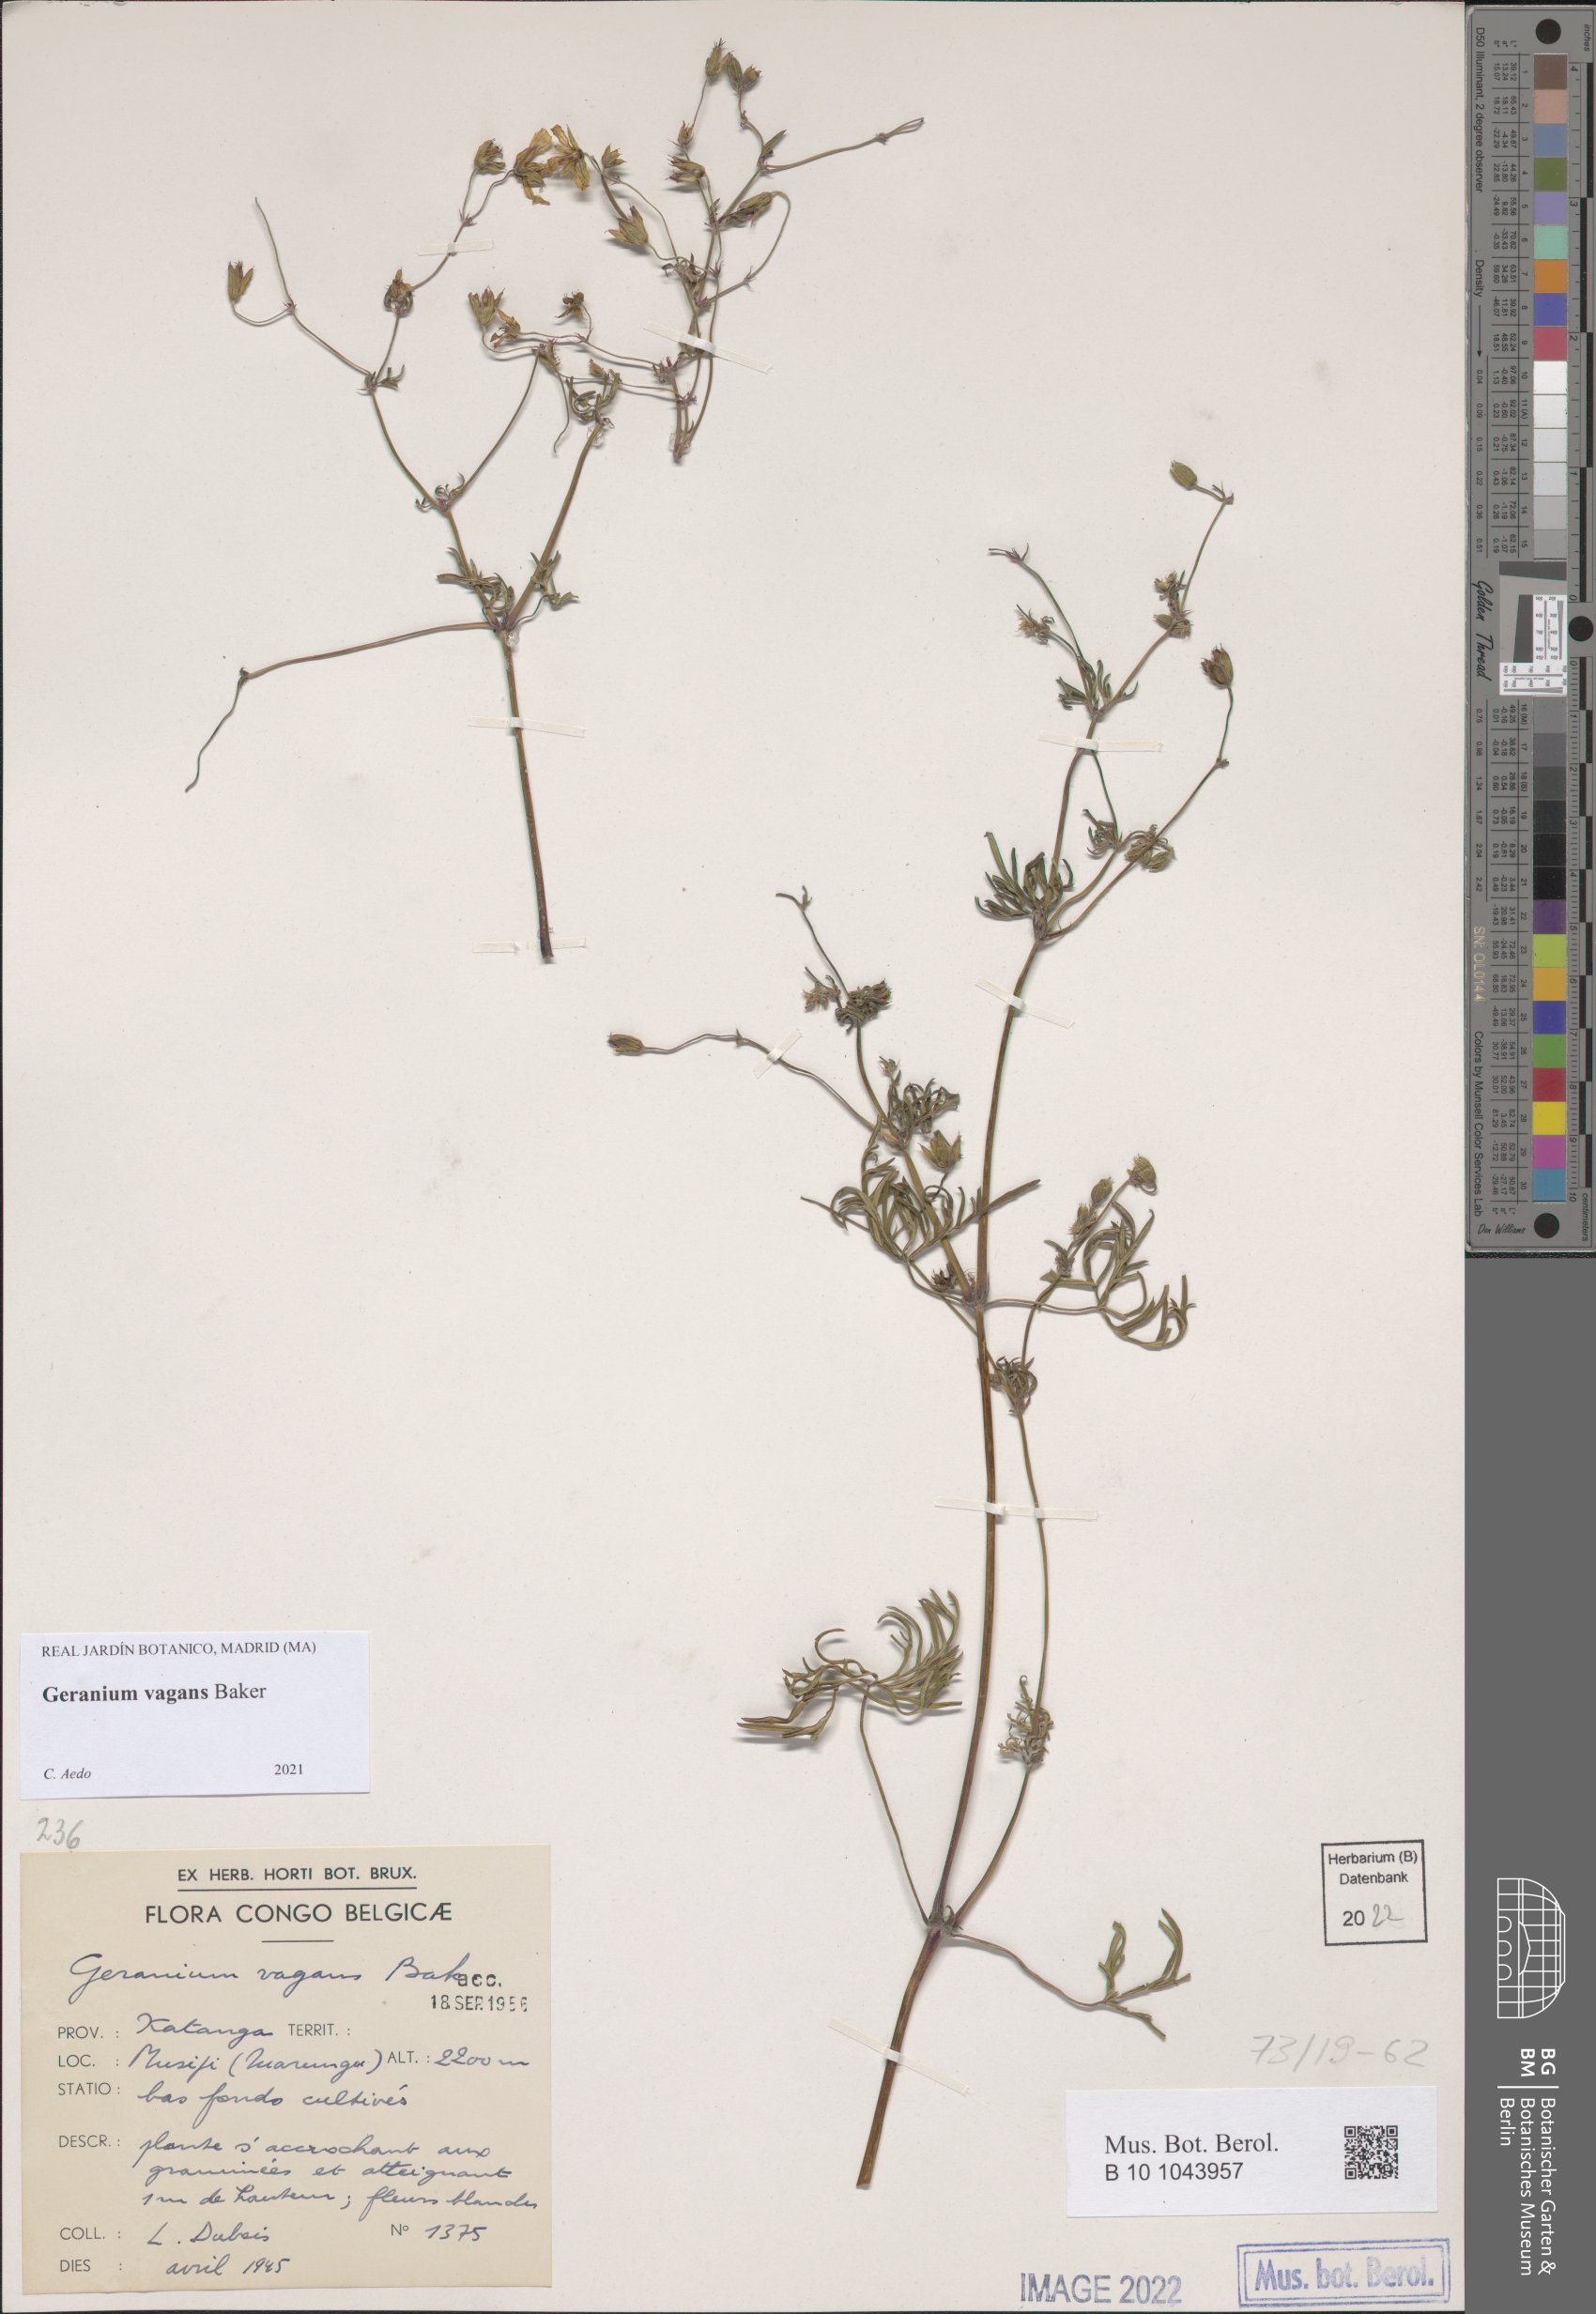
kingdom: Plantae
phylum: Tracheophyta
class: Magnoliopsida
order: Geraniales
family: Geraniaceae
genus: Geranium
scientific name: Geranium vagans
